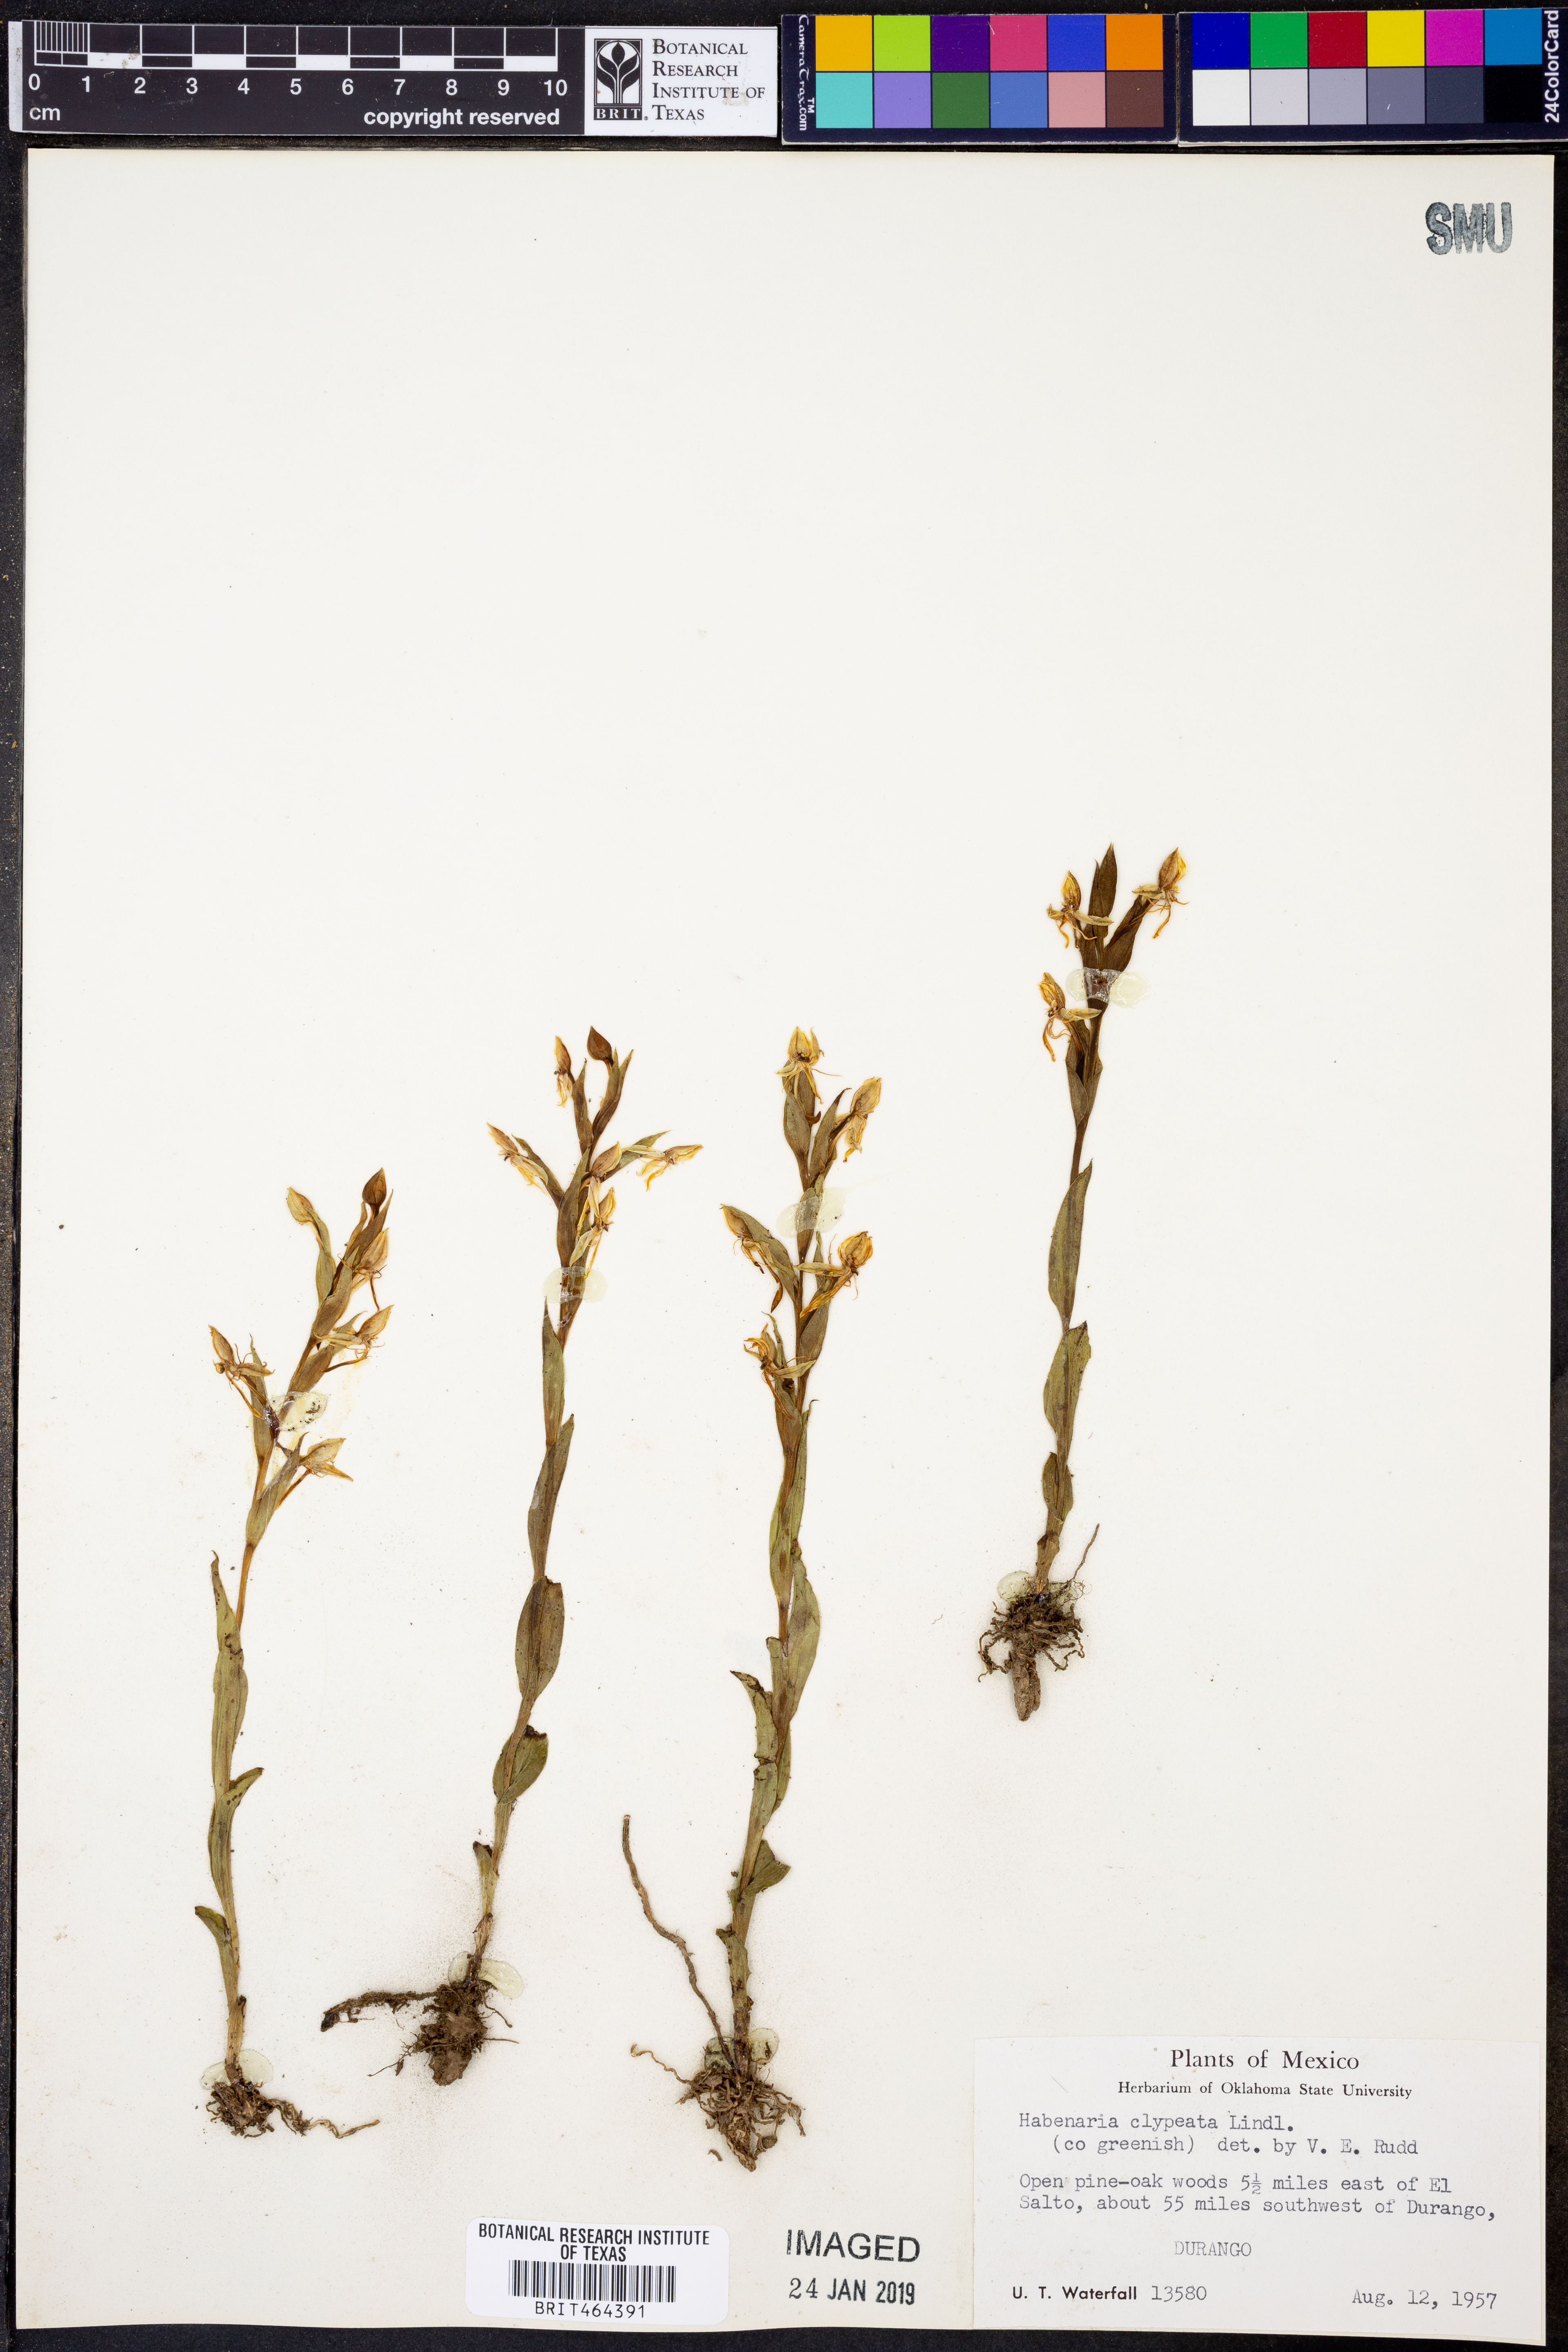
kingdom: Plantae
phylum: Tracheophyta
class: Liliopsida
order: Asparagales
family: Orchidaceae
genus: Habenaria
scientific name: Habenaria clypeata
